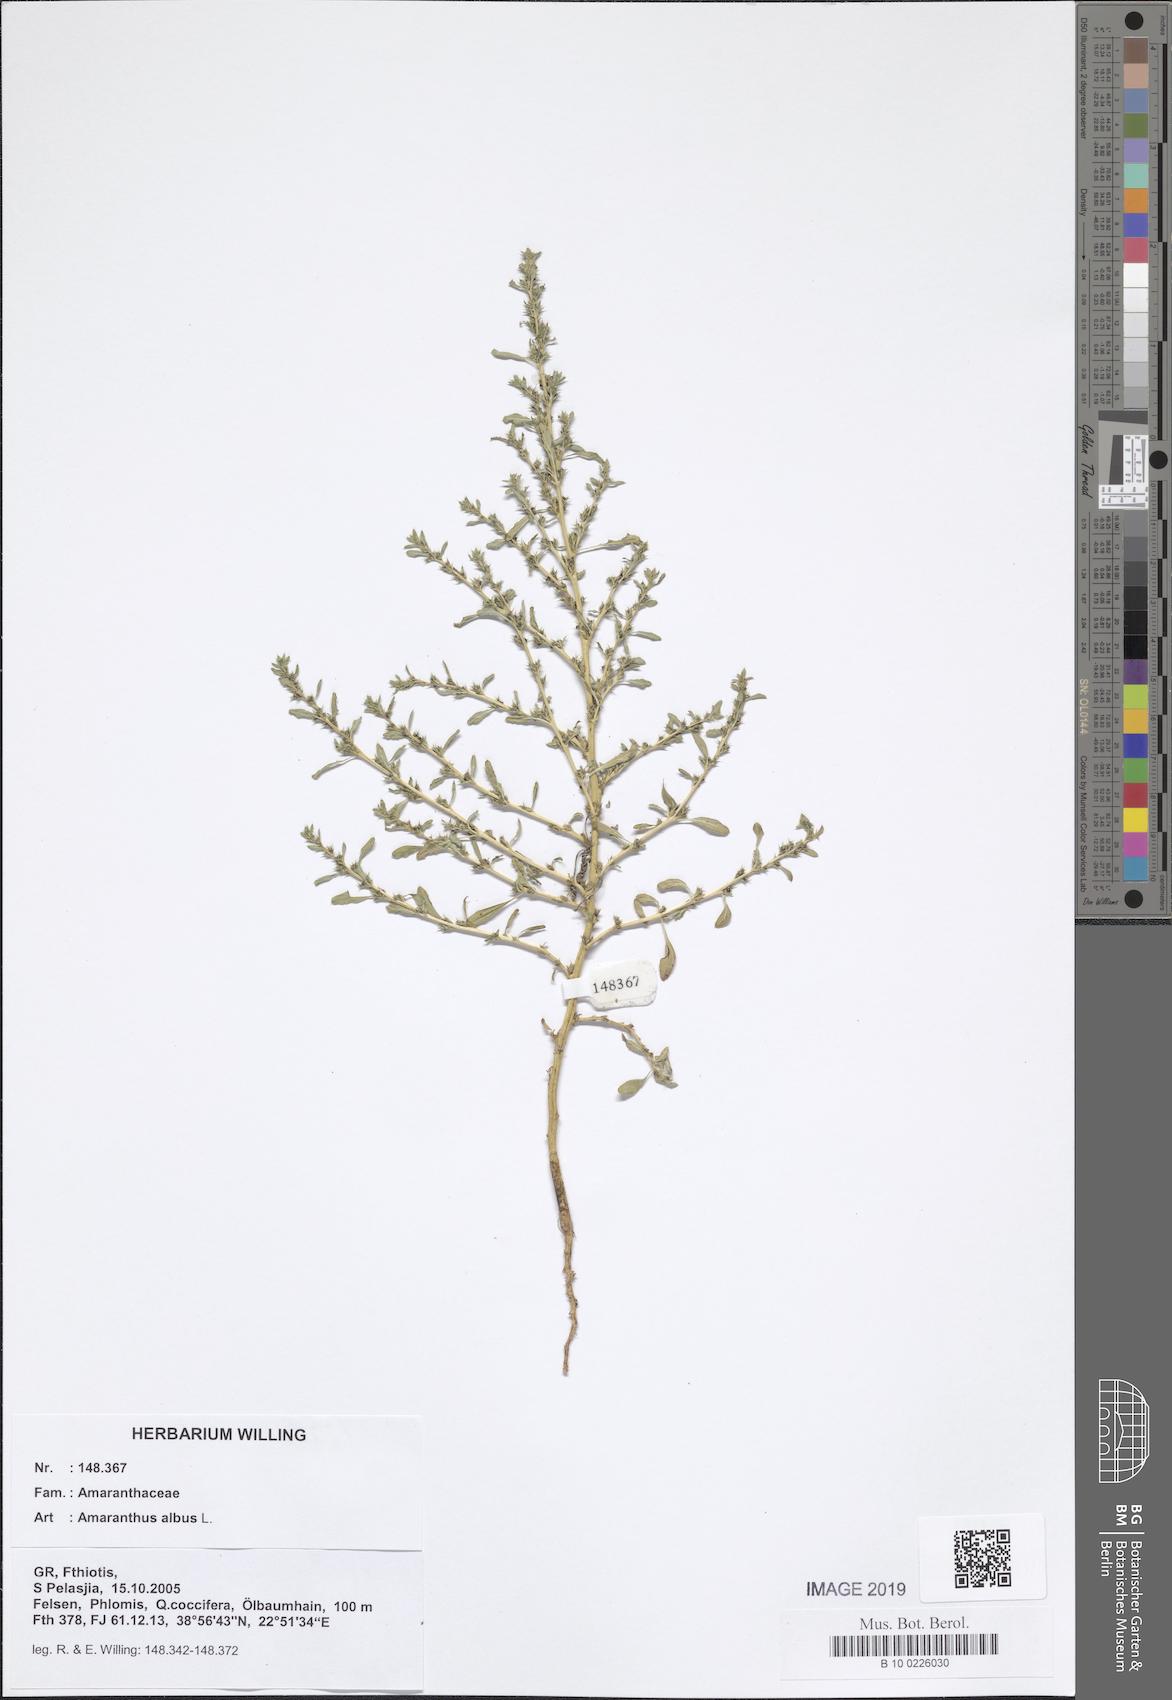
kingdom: Plantae
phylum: Tracheophyta
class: Magnoliopsida
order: Caryophyllales
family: Amaranthaceae
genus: Amaranthus
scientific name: Amaranthus albus
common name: White pigweed
